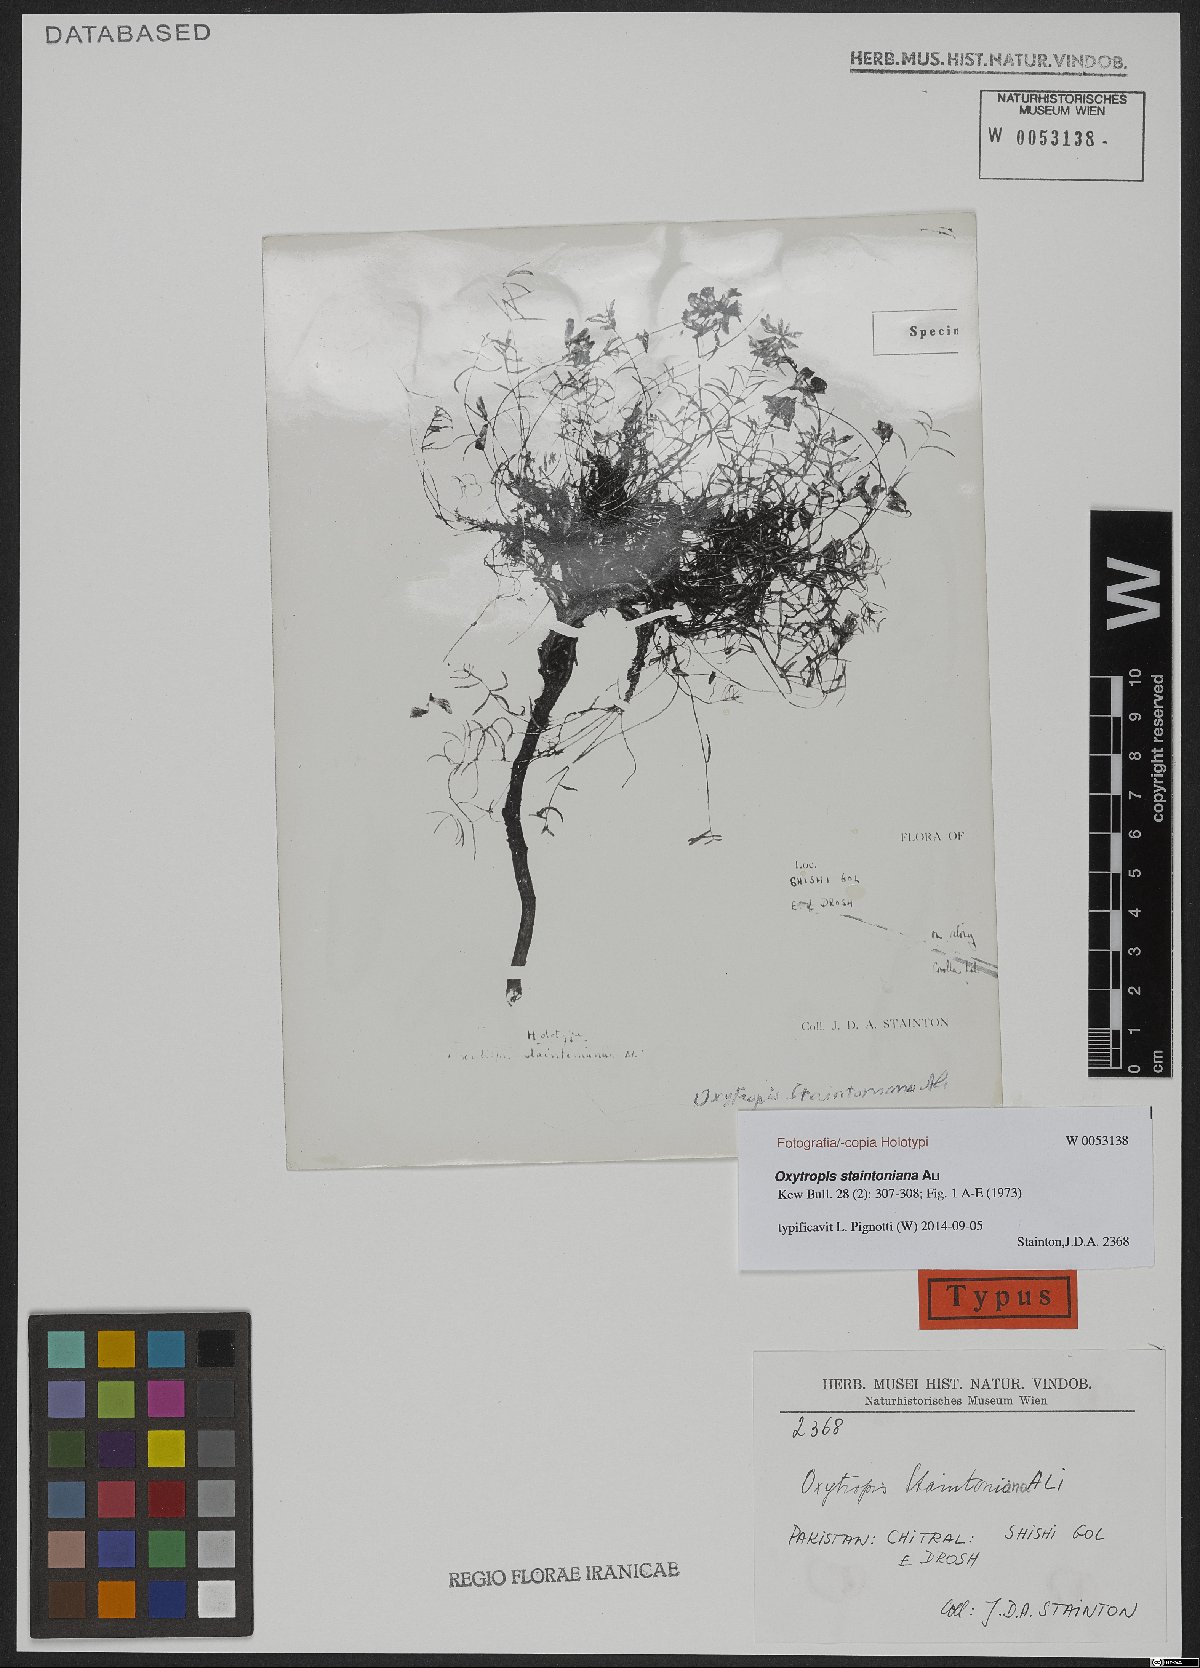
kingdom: Plantae
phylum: Tracheophyta
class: Magnoliopsida
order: Fabales
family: Fabaceae
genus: Oxytropis
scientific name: Oxytropis staintoniana
